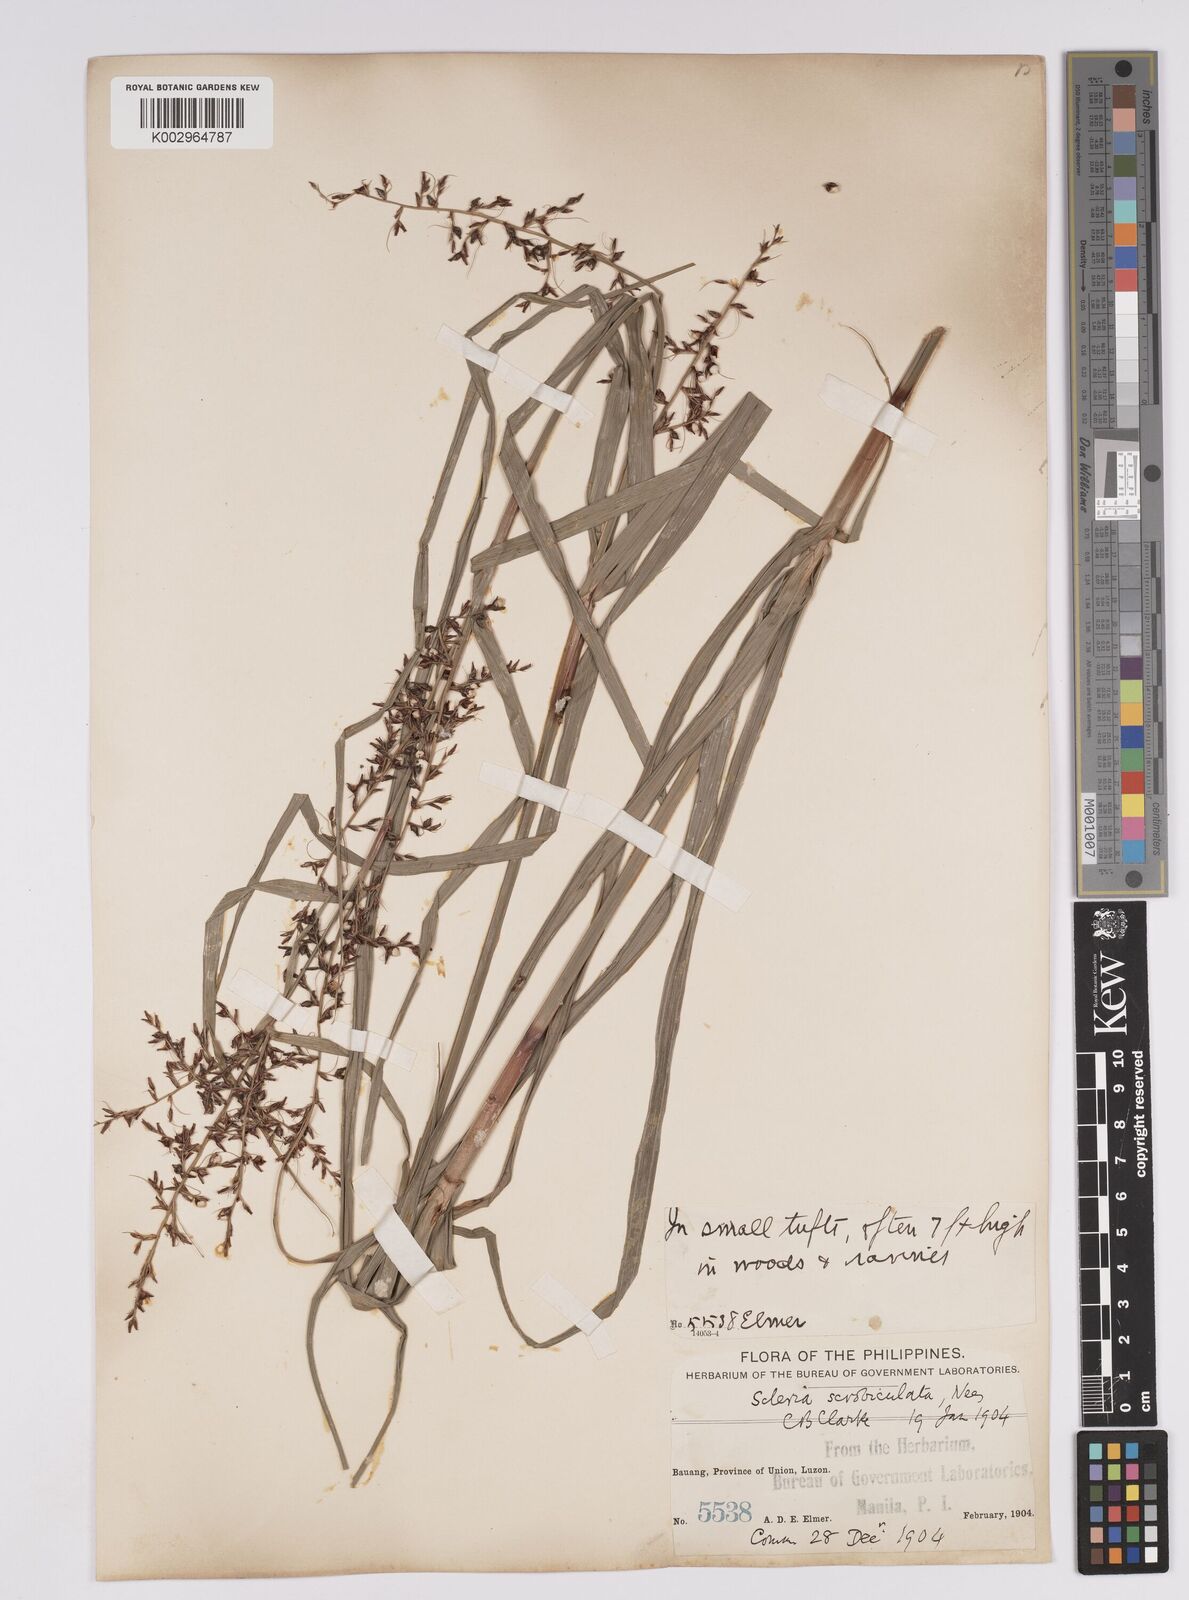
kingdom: Plantae
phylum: Tracheophyta
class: Liliopsida
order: Poales
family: Cyperaceae
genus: Scleria
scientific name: Scleria scrobiculata
